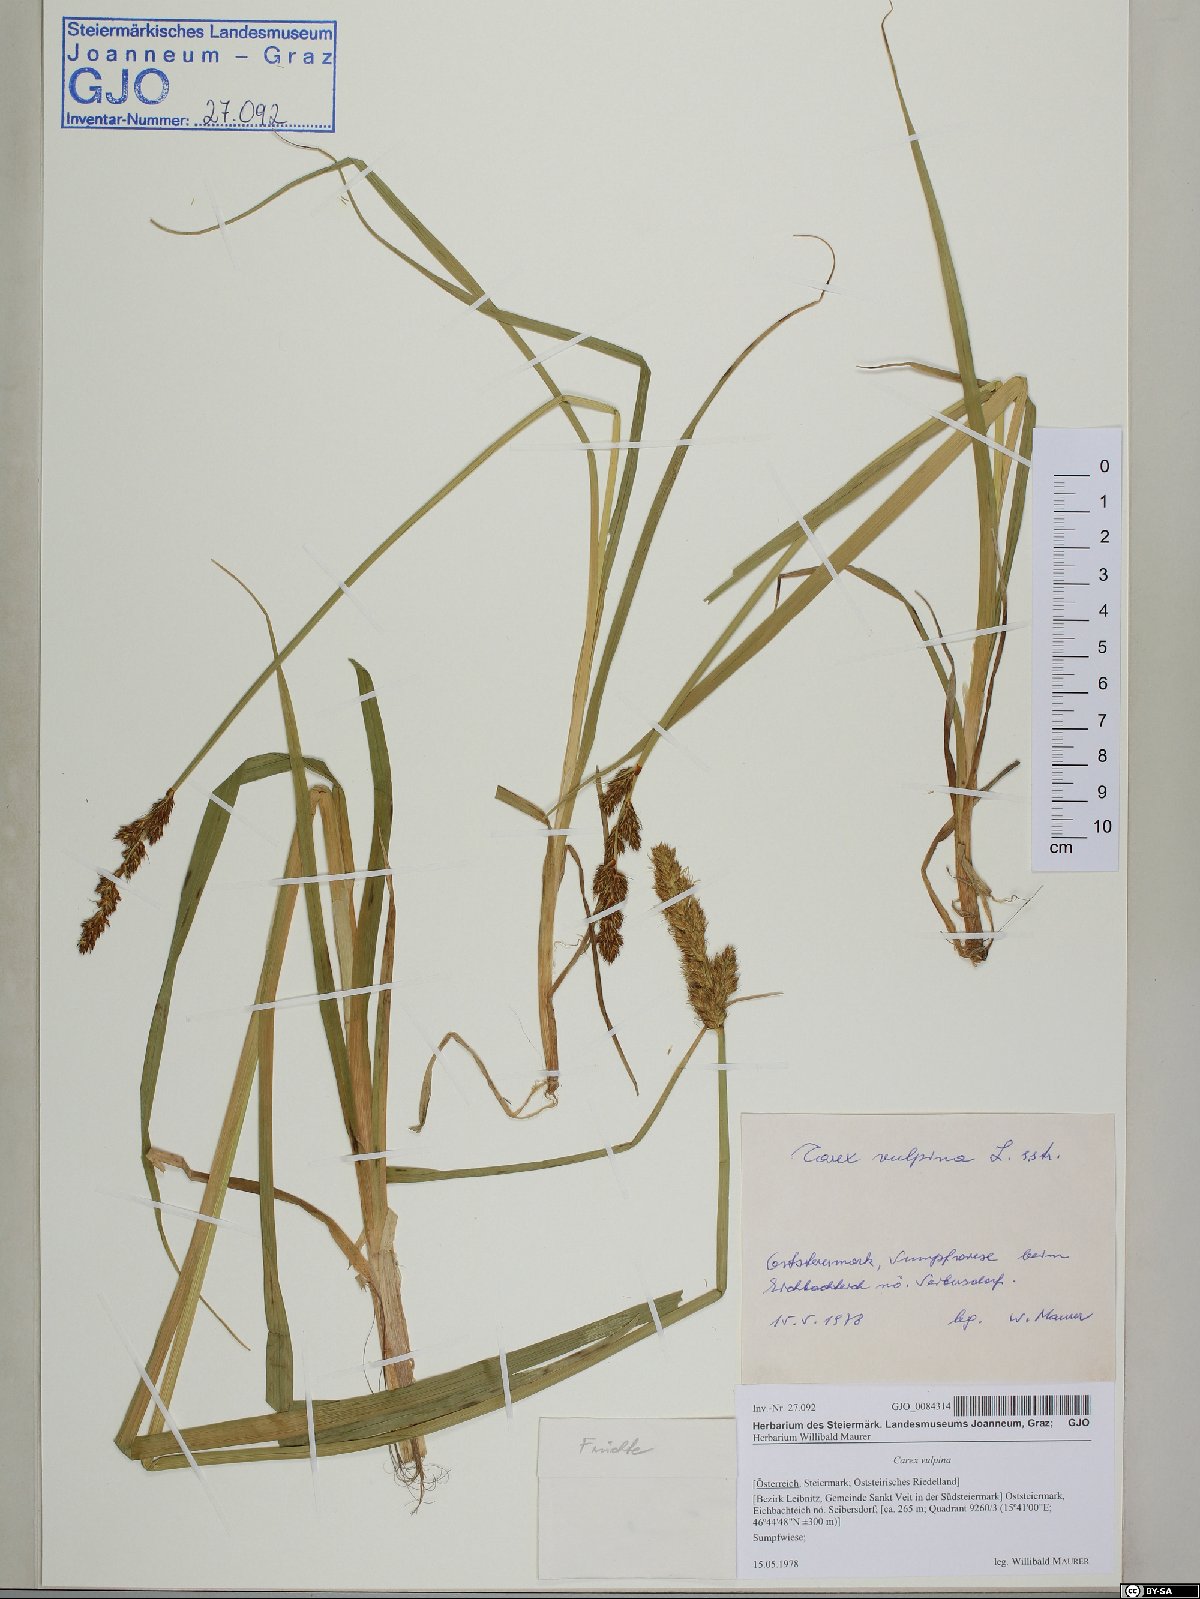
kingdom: Plantae
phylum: Tracheophyta
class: Liliopsida
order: Poales
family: Cyperaceae
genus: Carex
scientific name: Carex vulpina
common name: True fox-sedge
